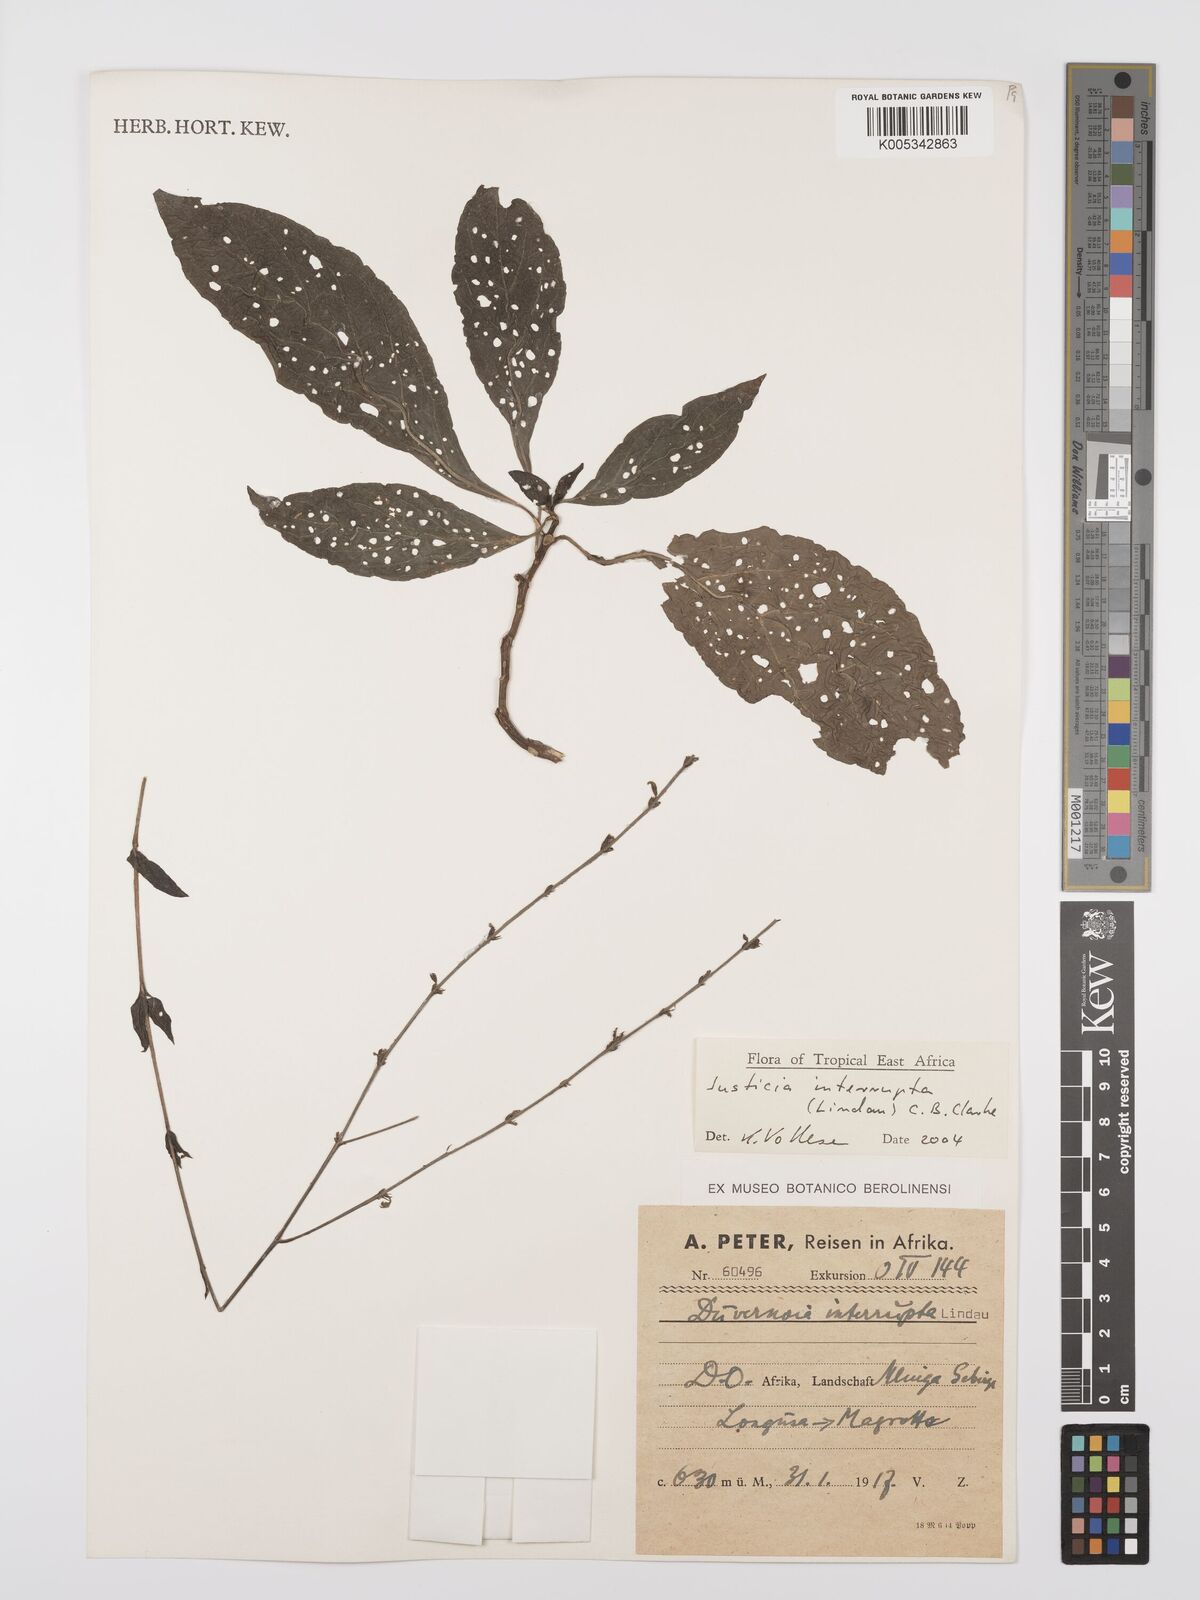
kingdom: Plantae
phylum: Tracheophyta
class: Magnoliopsida
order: Lamiales
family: Acanthaceae
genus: Justicia
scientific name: Justicia plectranthoides
